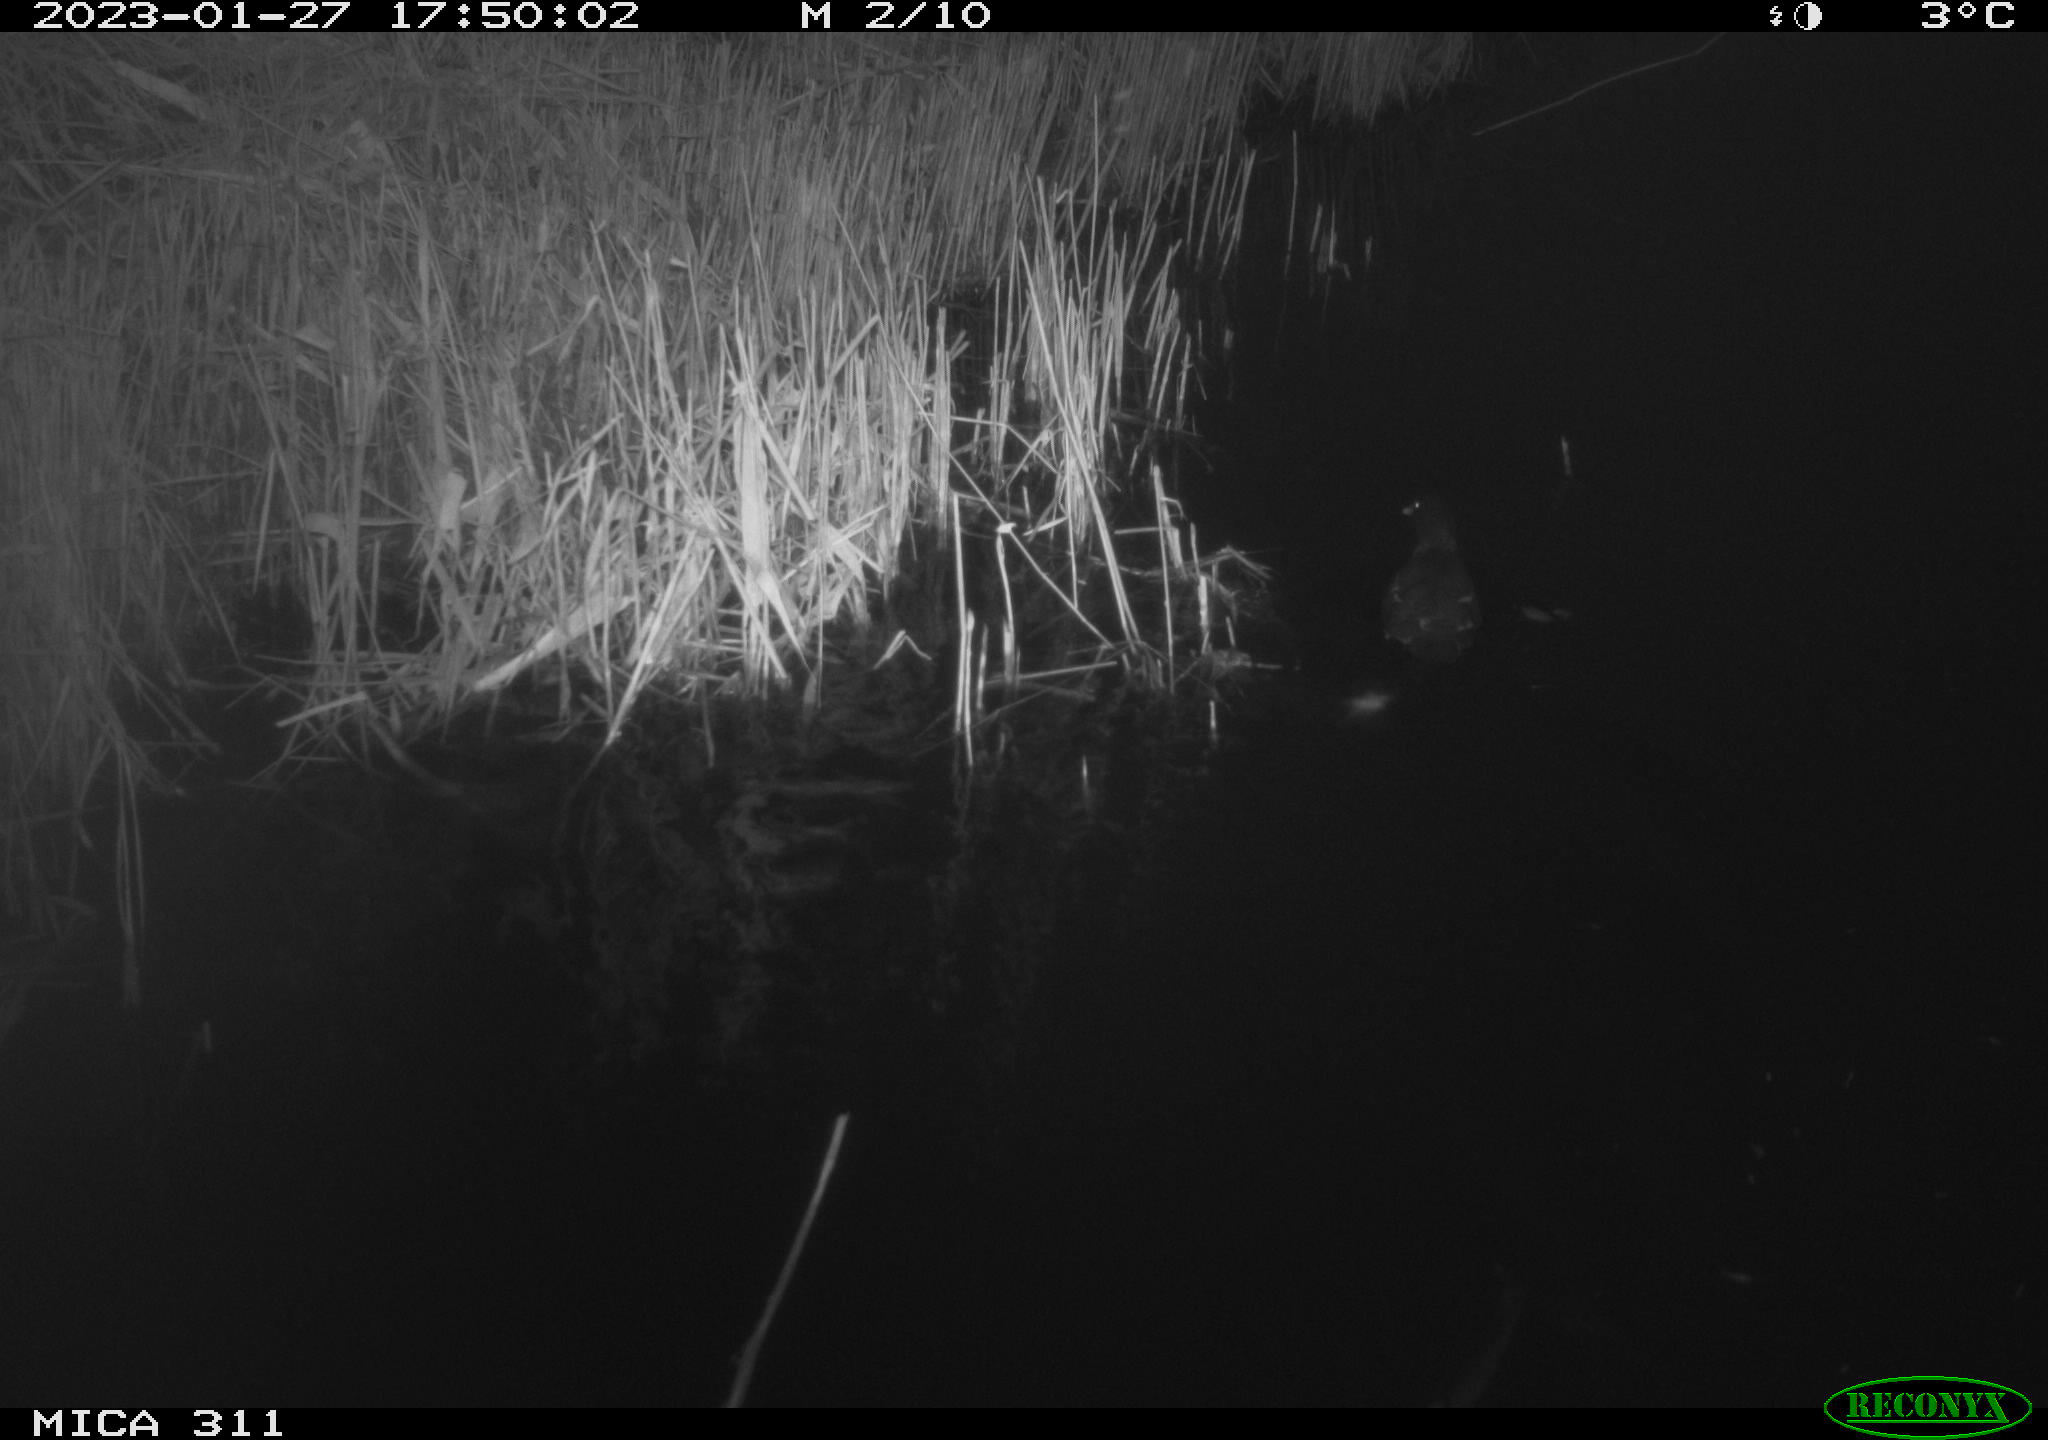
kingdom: Animalia
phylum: Chordata
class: Aves
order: Gruiformes
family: Rallidae
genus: Gallinula
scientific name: Gallinula chloropus
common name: Common moorhen
